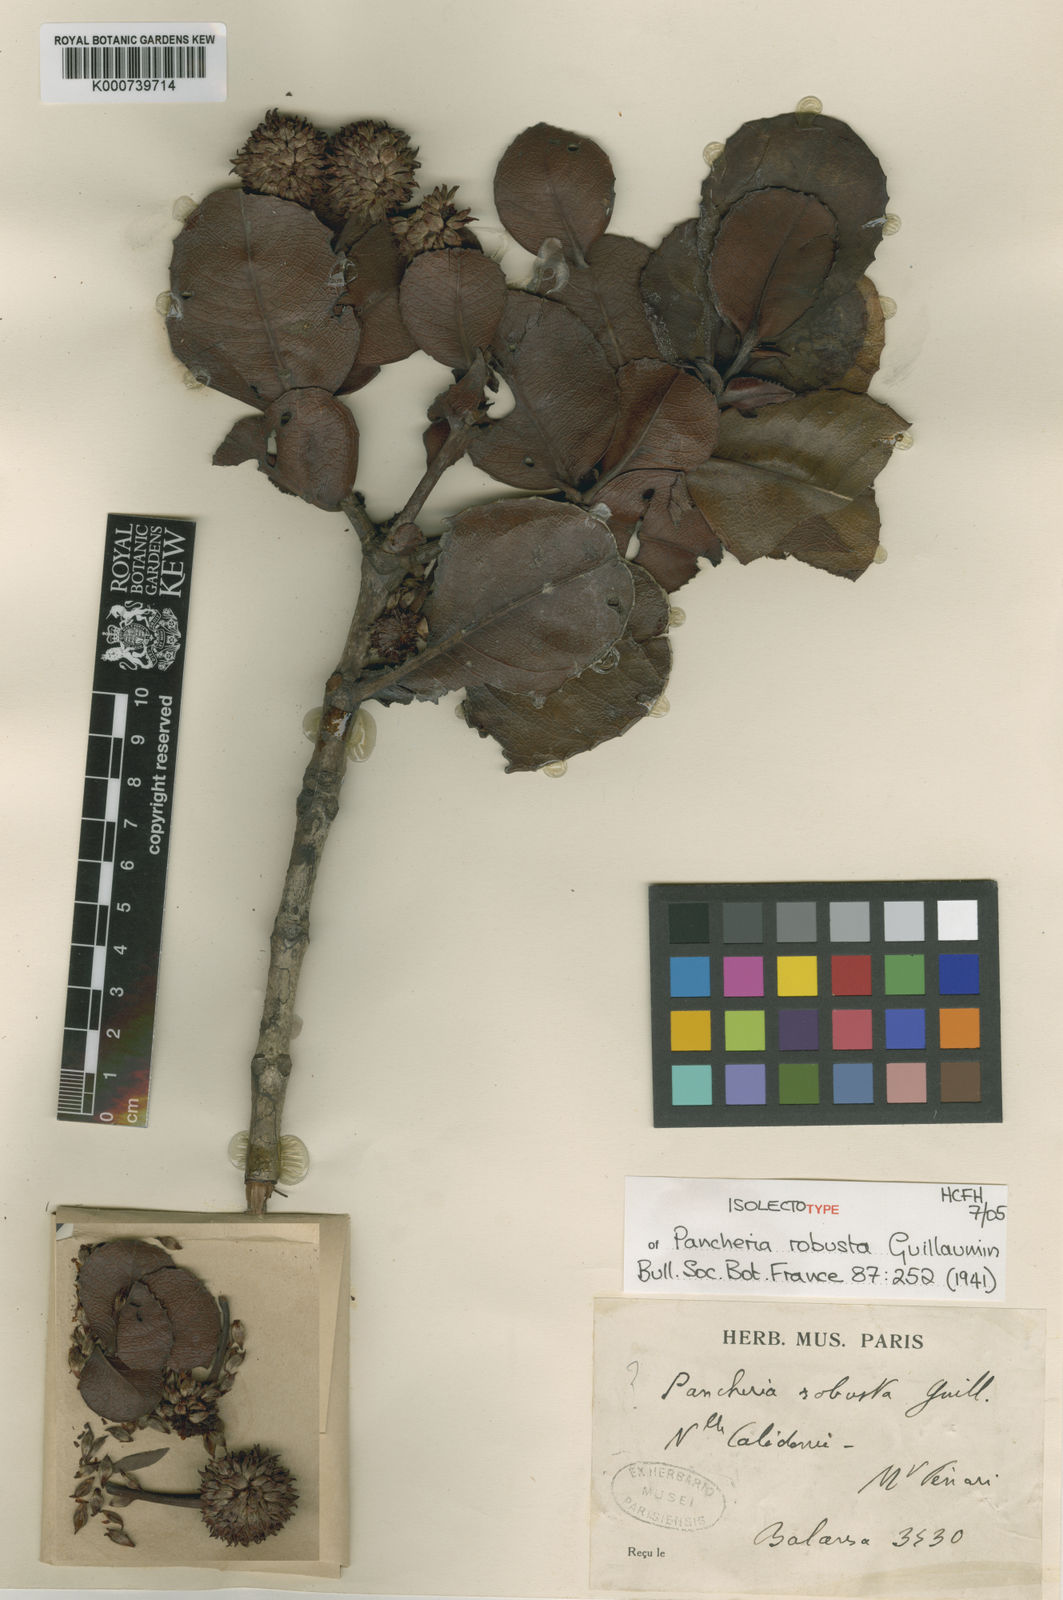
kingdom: Plantae
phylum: Tracheophyta
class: Magnoliopsida
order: Oxalidales
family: Cunoniaceae
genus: Pancheria
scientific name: Pancheria robusta
